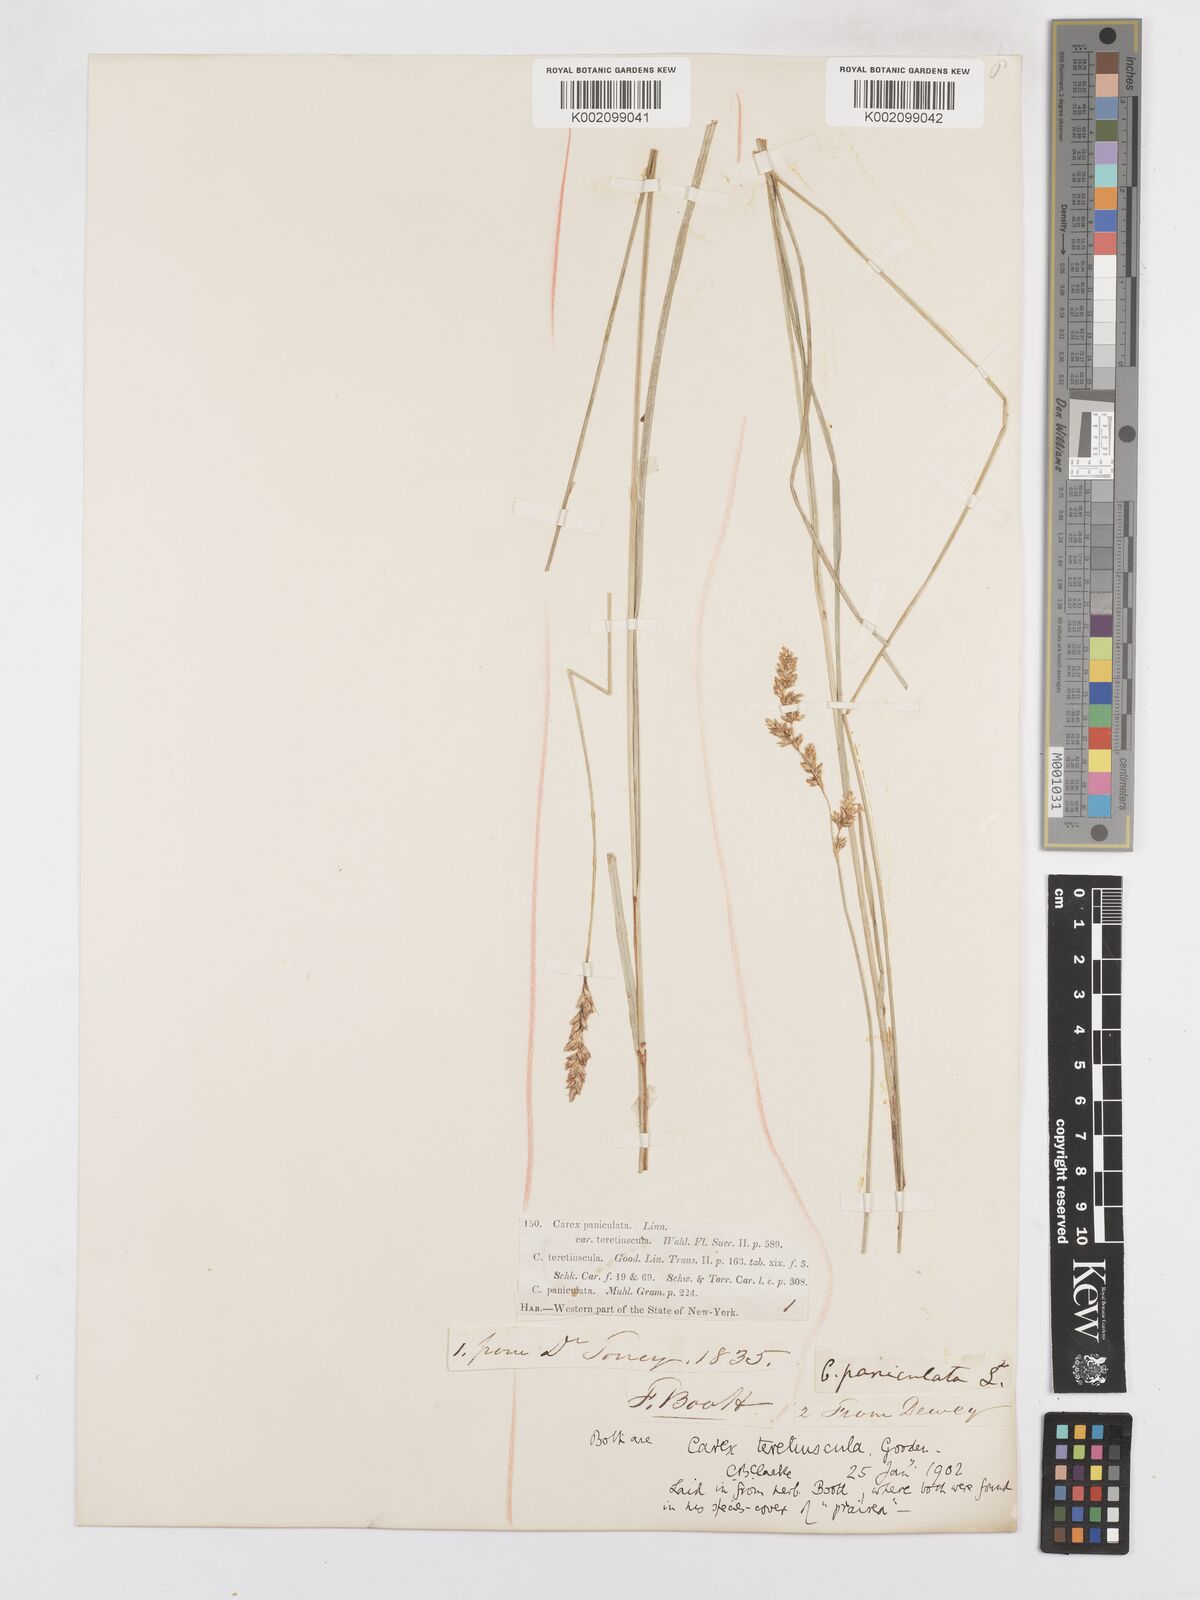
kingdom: Plantae
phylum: Tracheophyta
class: Liliopsida
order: Poales
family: Cyperaceae
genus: Carex
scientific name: Carex diandra
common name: Lesser tussock-sedge
